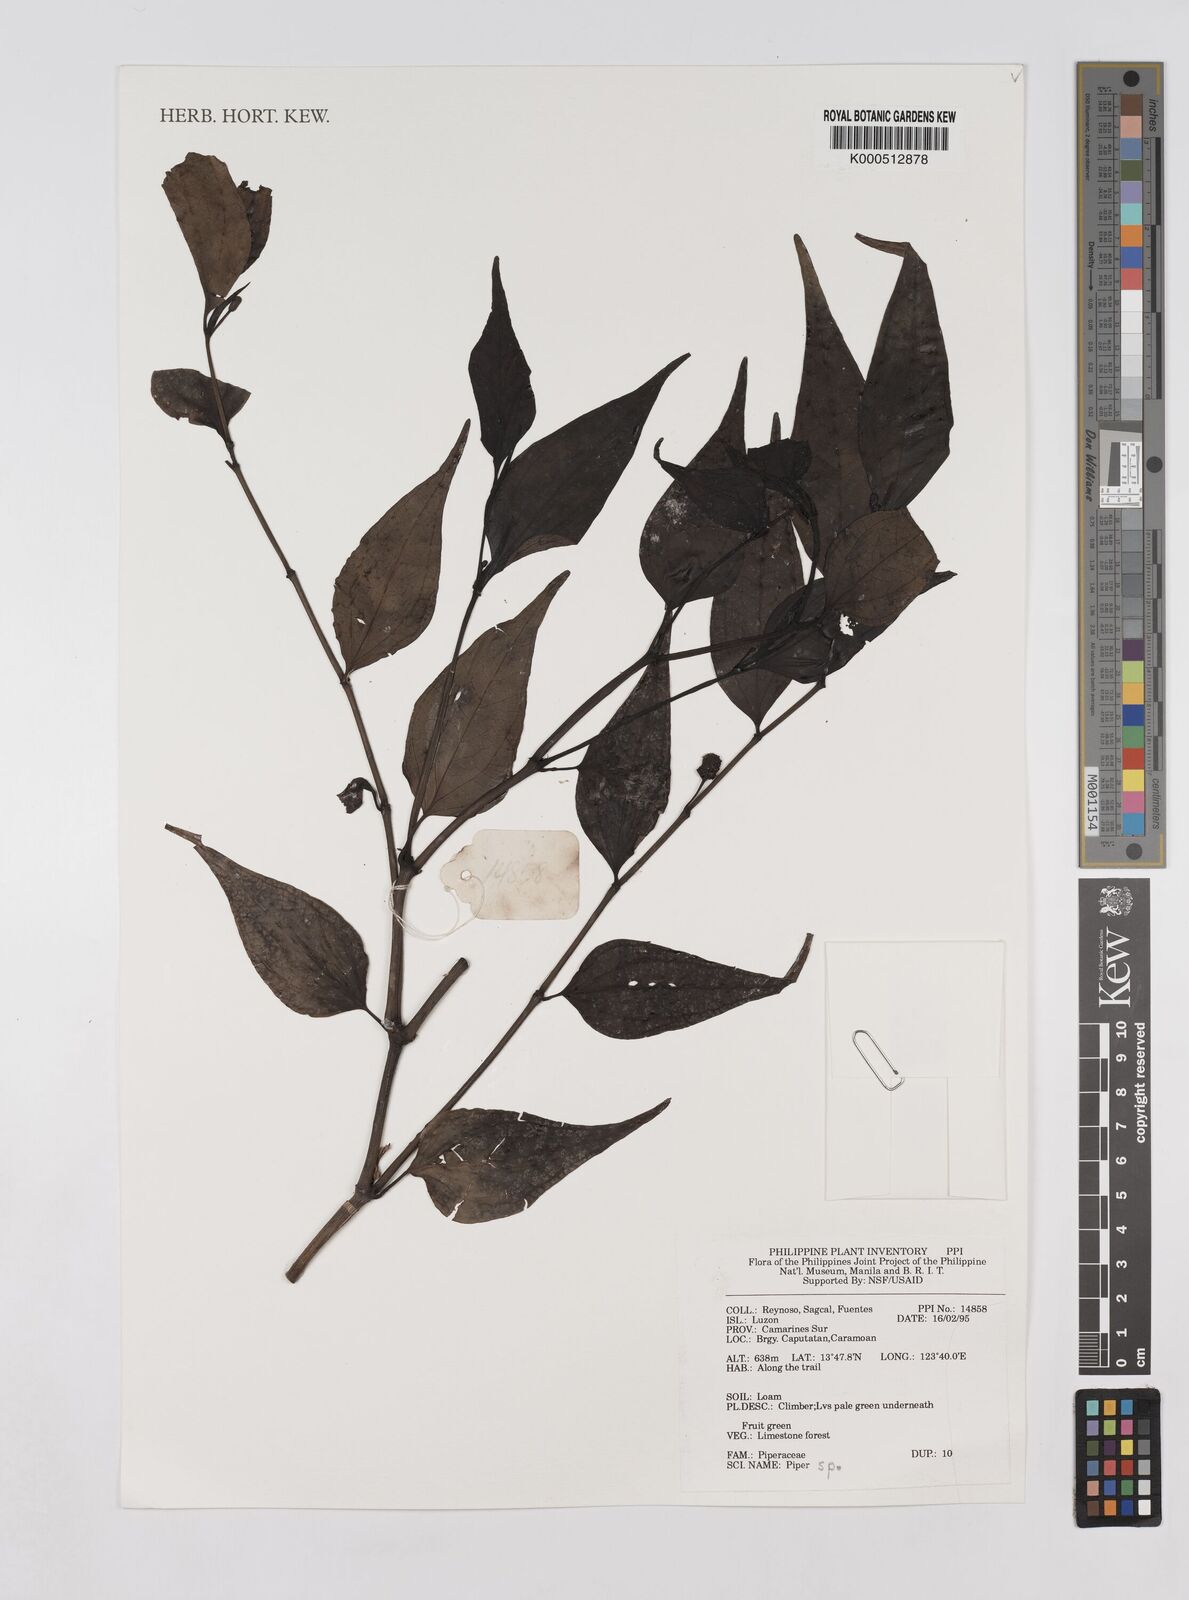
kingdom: Plantae
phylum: Tracheophyta
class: Magnoliopsida
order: Piperales
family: Piperaceae
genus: Piper
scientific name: Piper
